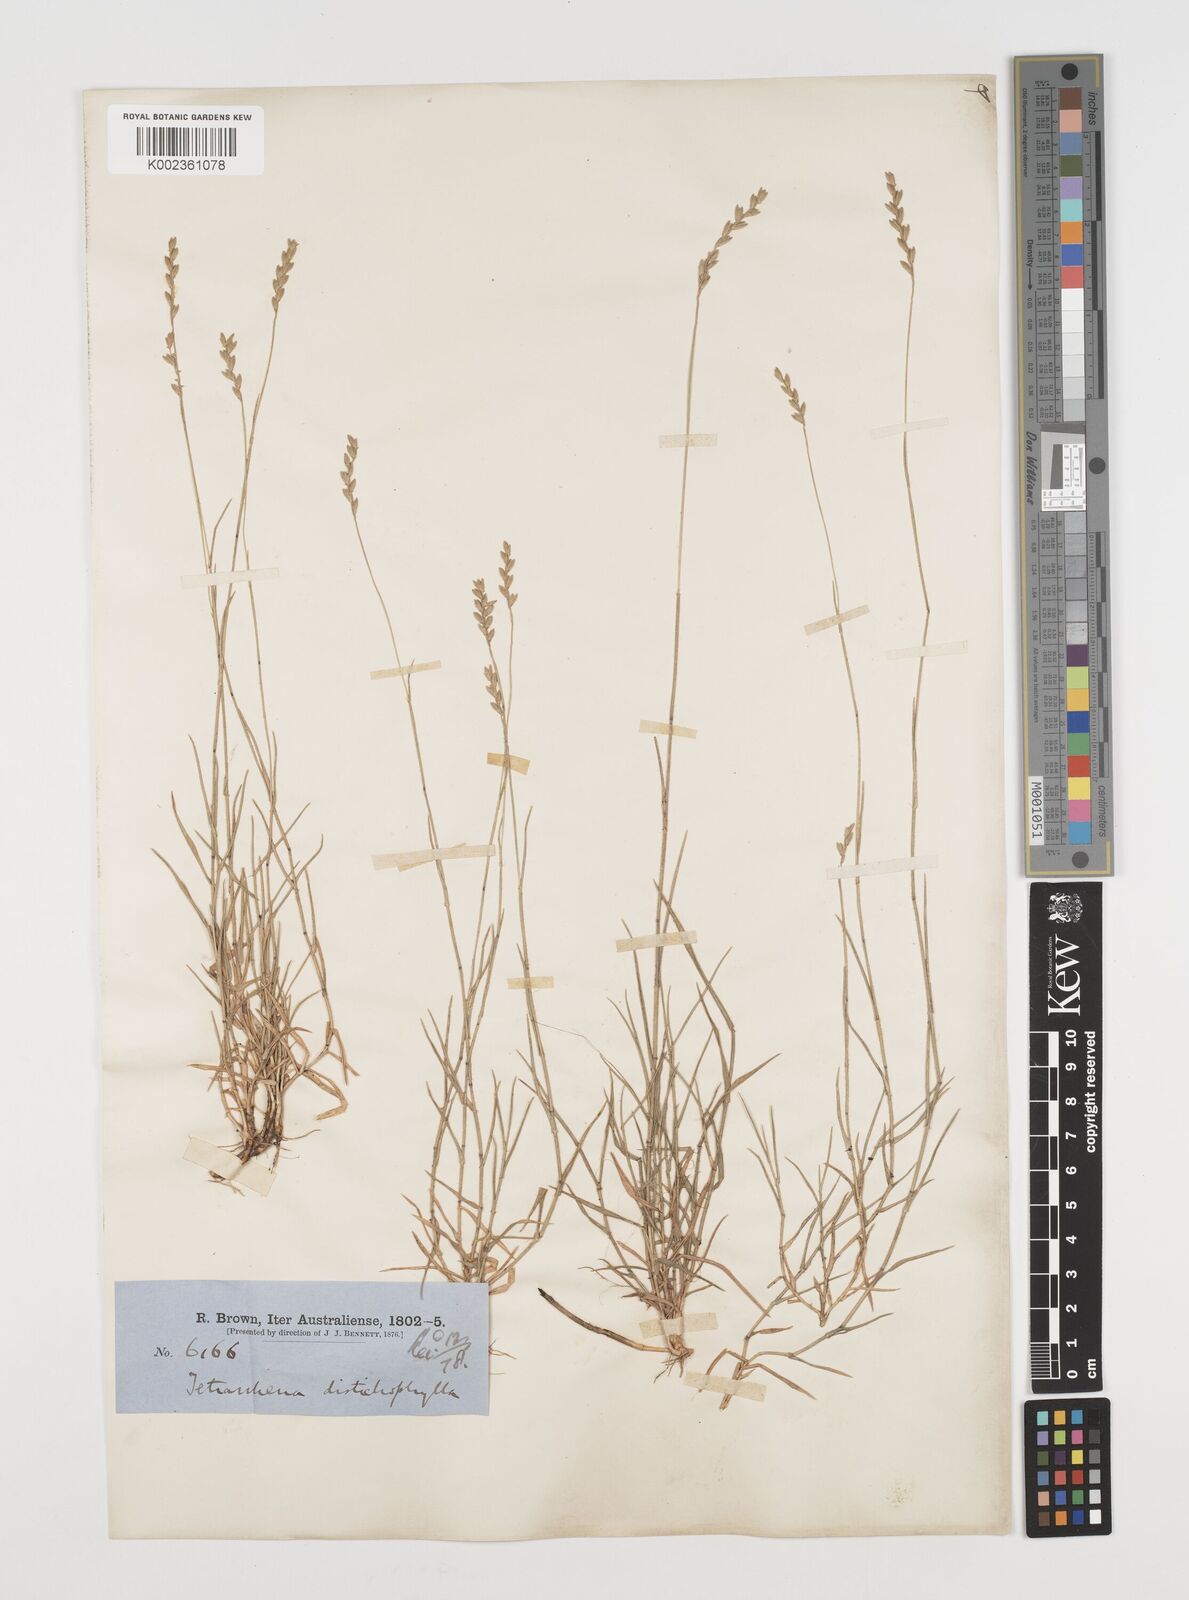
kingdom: Plantae
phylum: Tracheophyta
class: Liliopsida
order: Poales
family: Poaceae
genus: Tetrarrhena
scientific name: Tetrarrhena distichophylla
